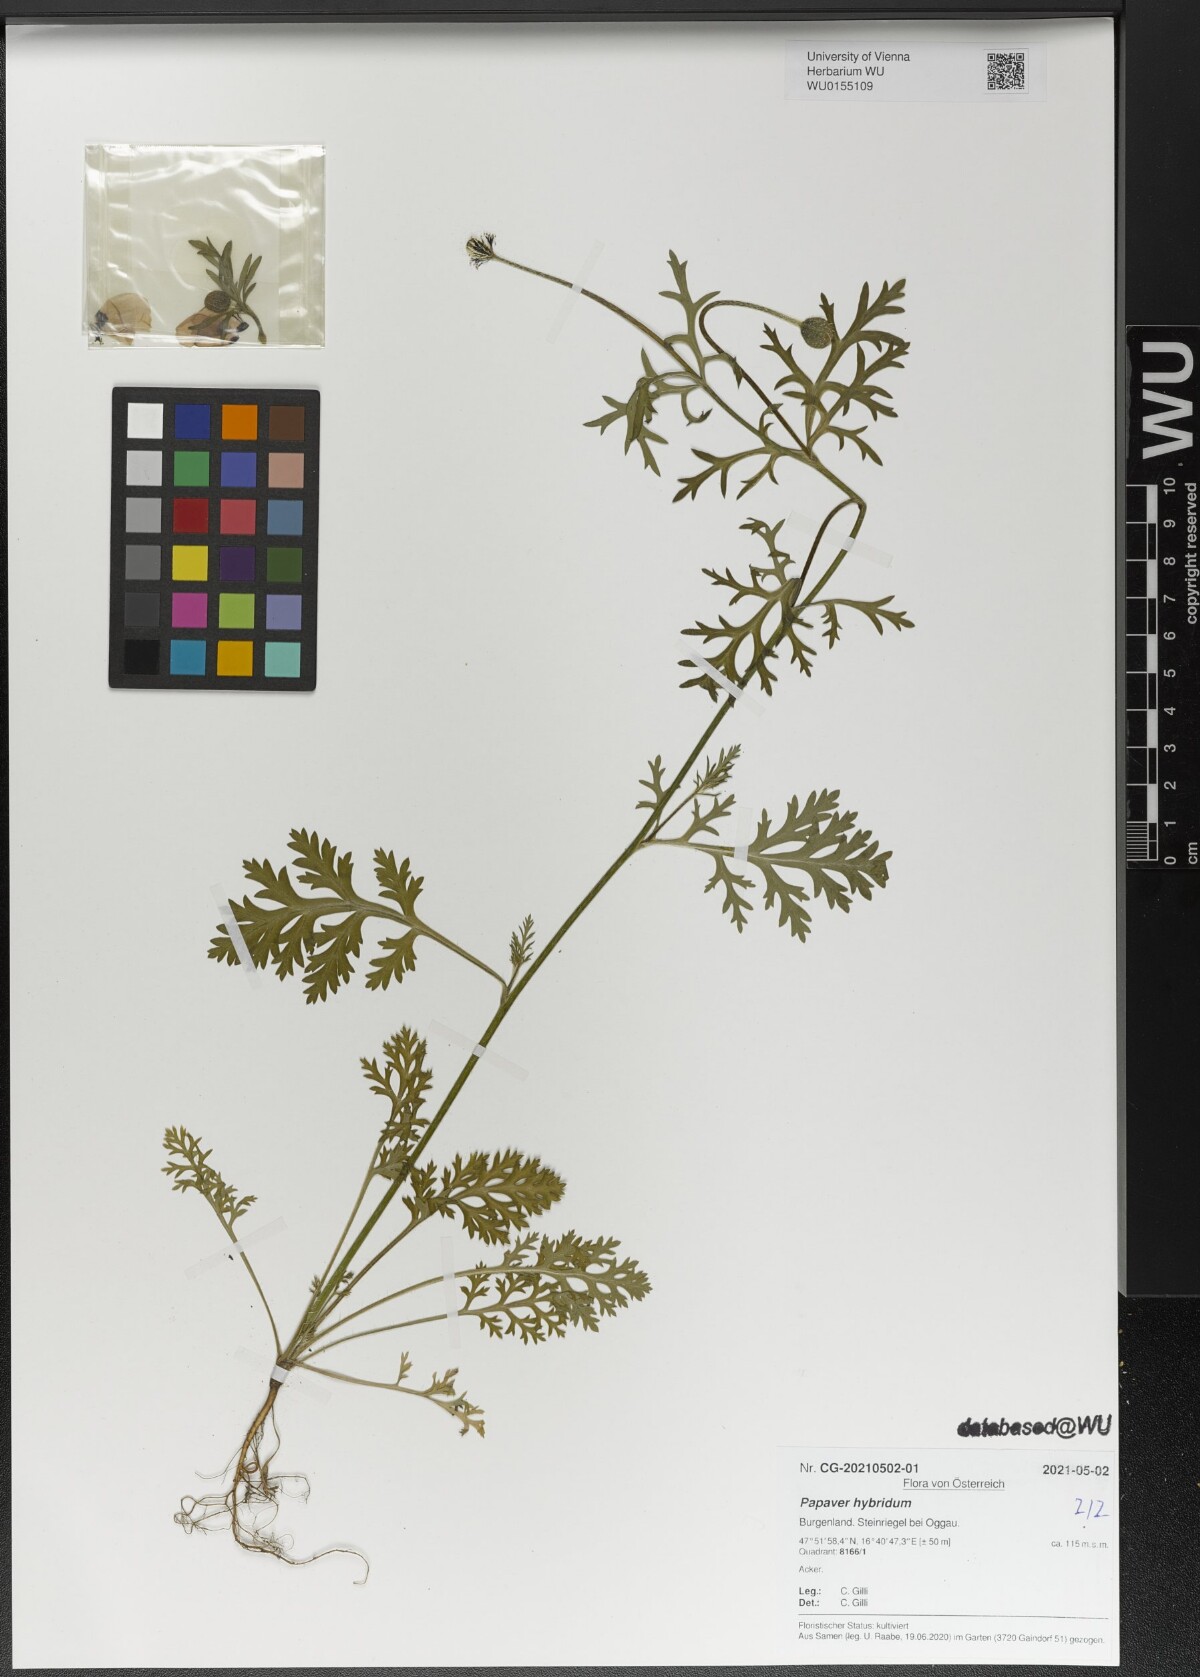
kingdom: Plantae
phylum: Tracheophyta
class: Magnoliopsida
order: Ranunculales
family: Papaveraceae
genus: Roemeria
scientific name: Roemeria hispida
